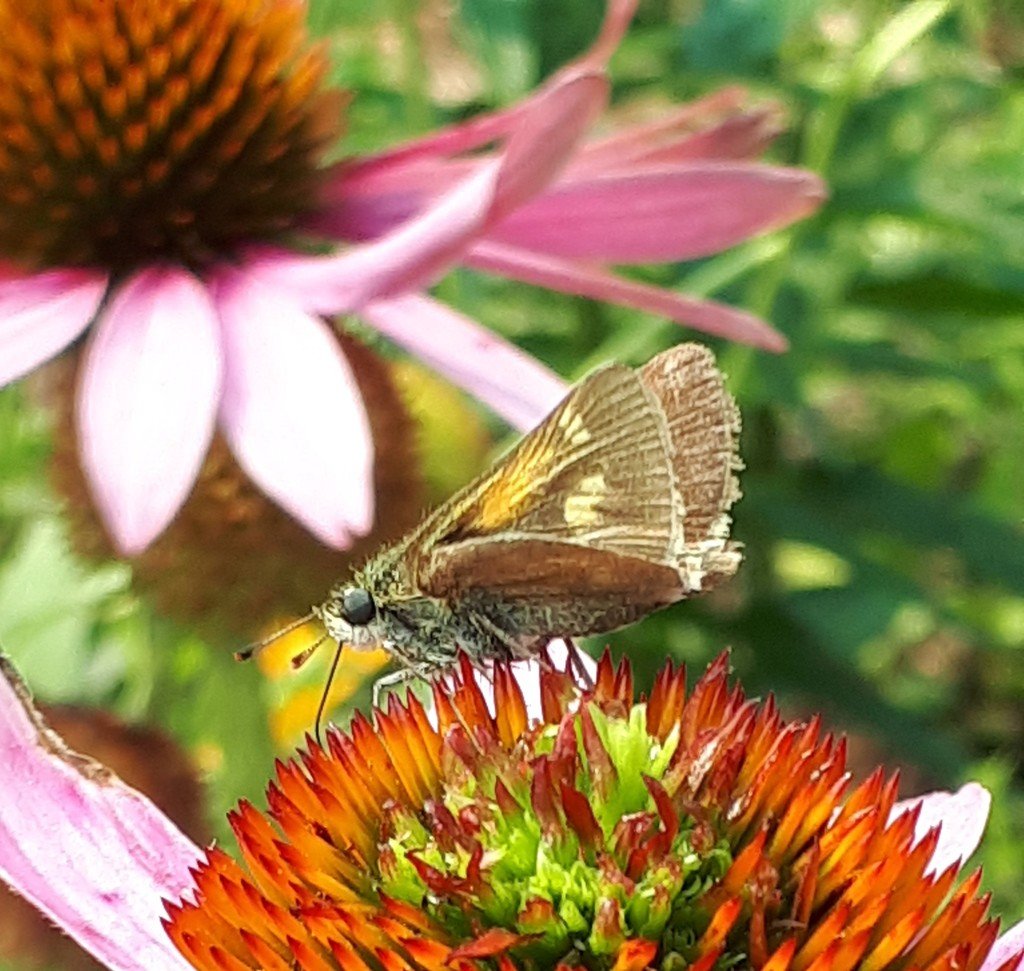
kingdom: Animalia
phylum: Arthropoda
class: Insecta
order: Lepidoptera
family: Hesperiidae
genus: Polites
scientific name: Polites themistocles
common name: Tawny-edged Skipper
